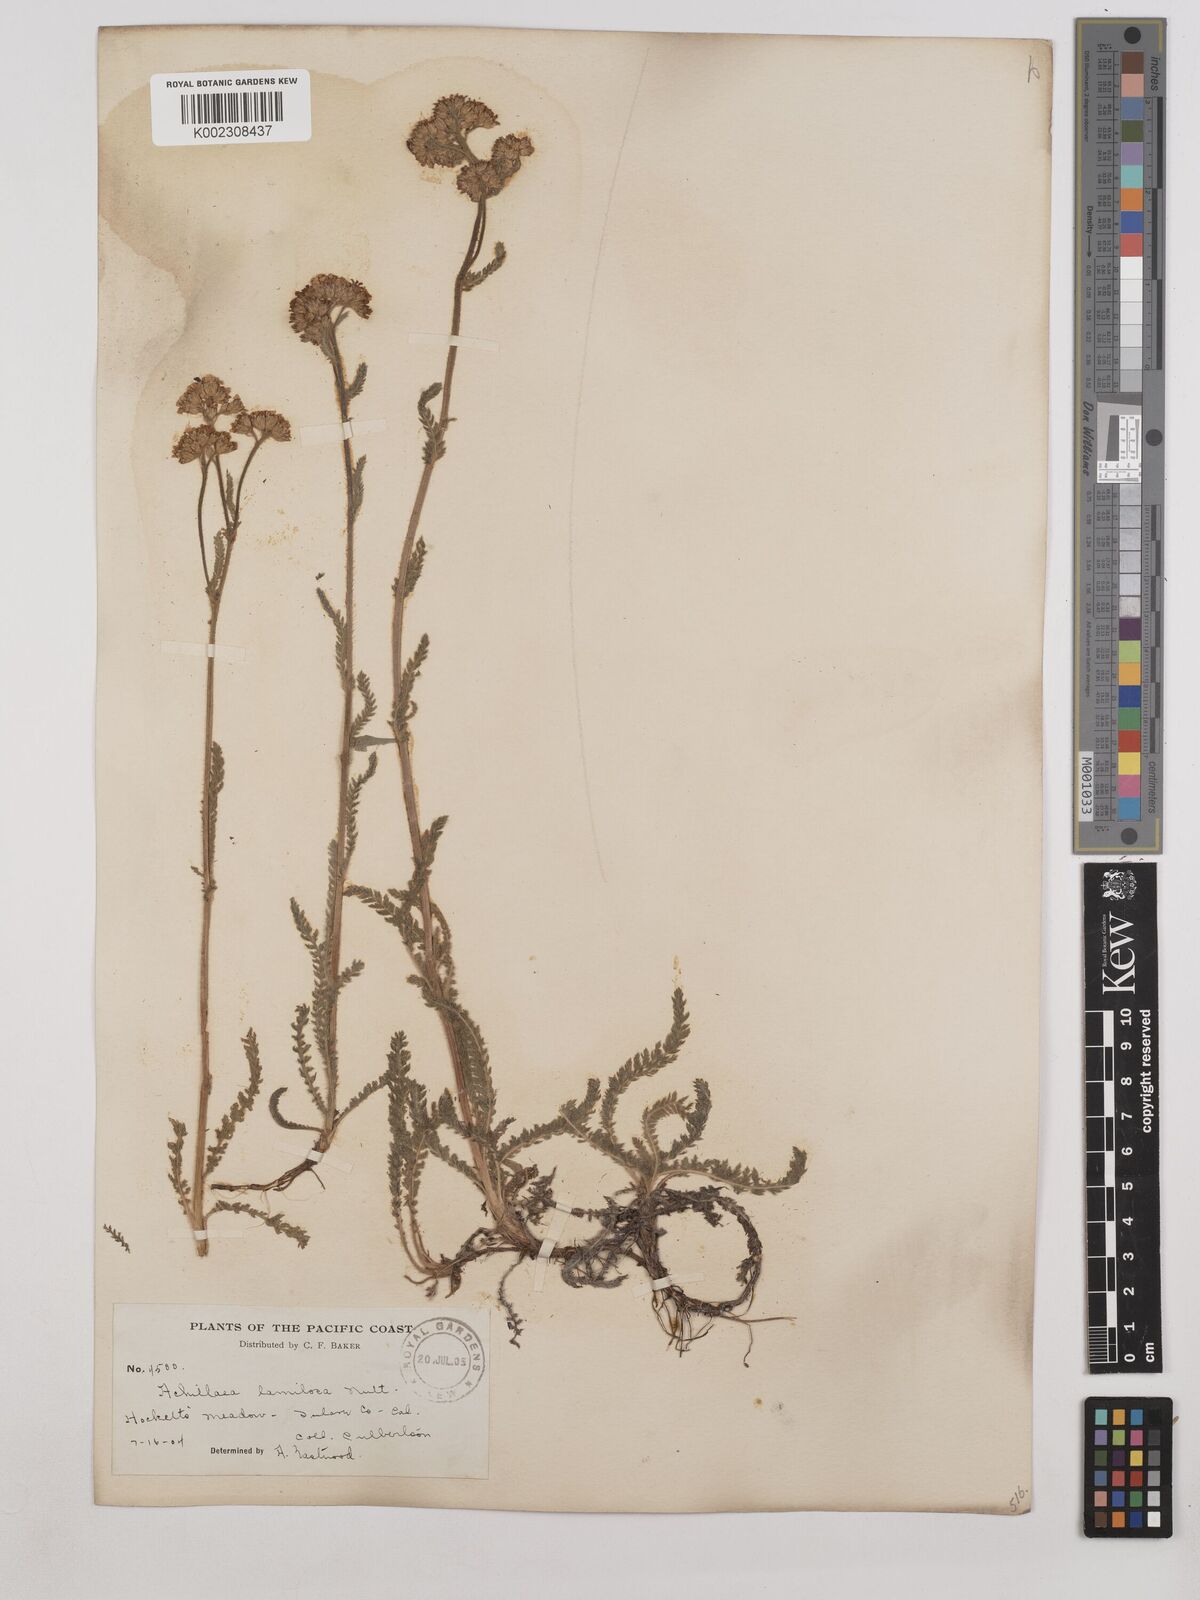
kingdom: Plantae
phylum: Tracheophyta
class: Magnoliopsida
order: Asterales
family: Asteraceae
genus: Achillea
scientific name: Achillea millefolium
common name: Yarrow
